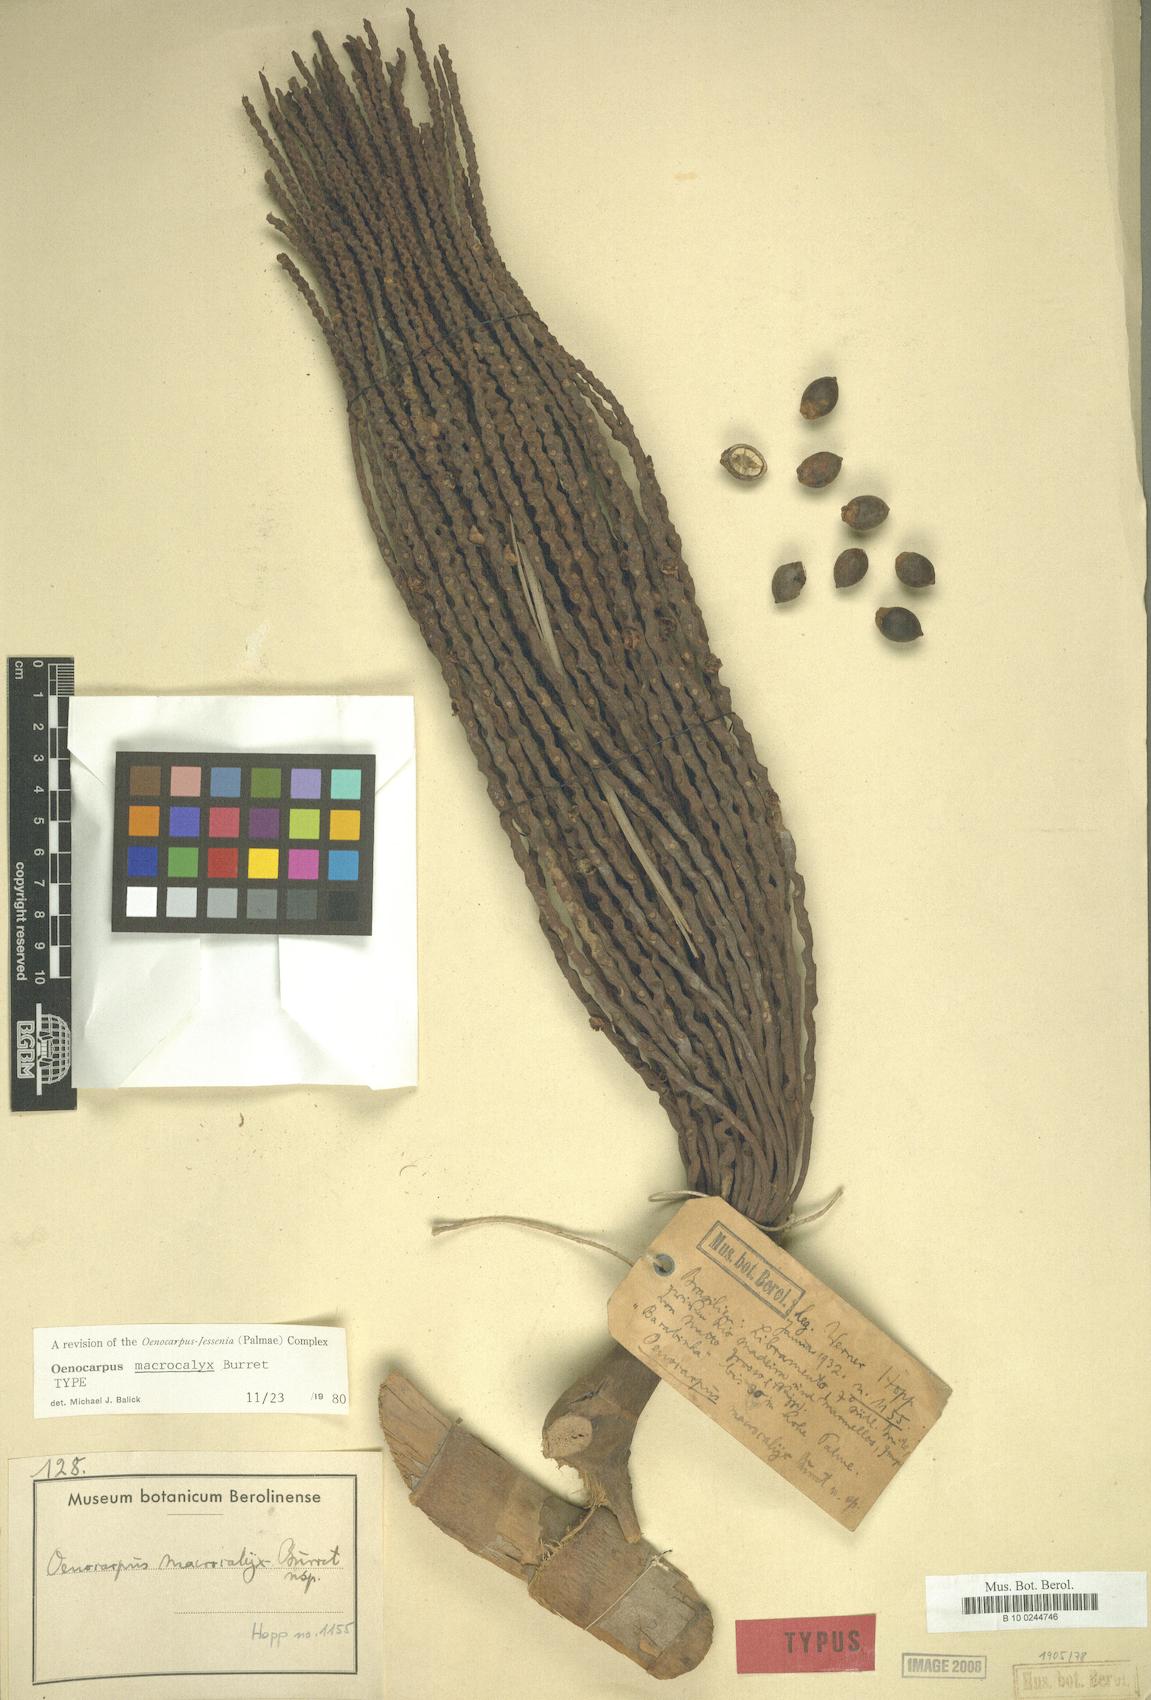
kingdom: Plantae
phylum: Tracheophyta
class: Liliopsida
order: Arecales
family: Arecaceae
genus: Oenocarpus
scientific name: Oenocarpus mapora
